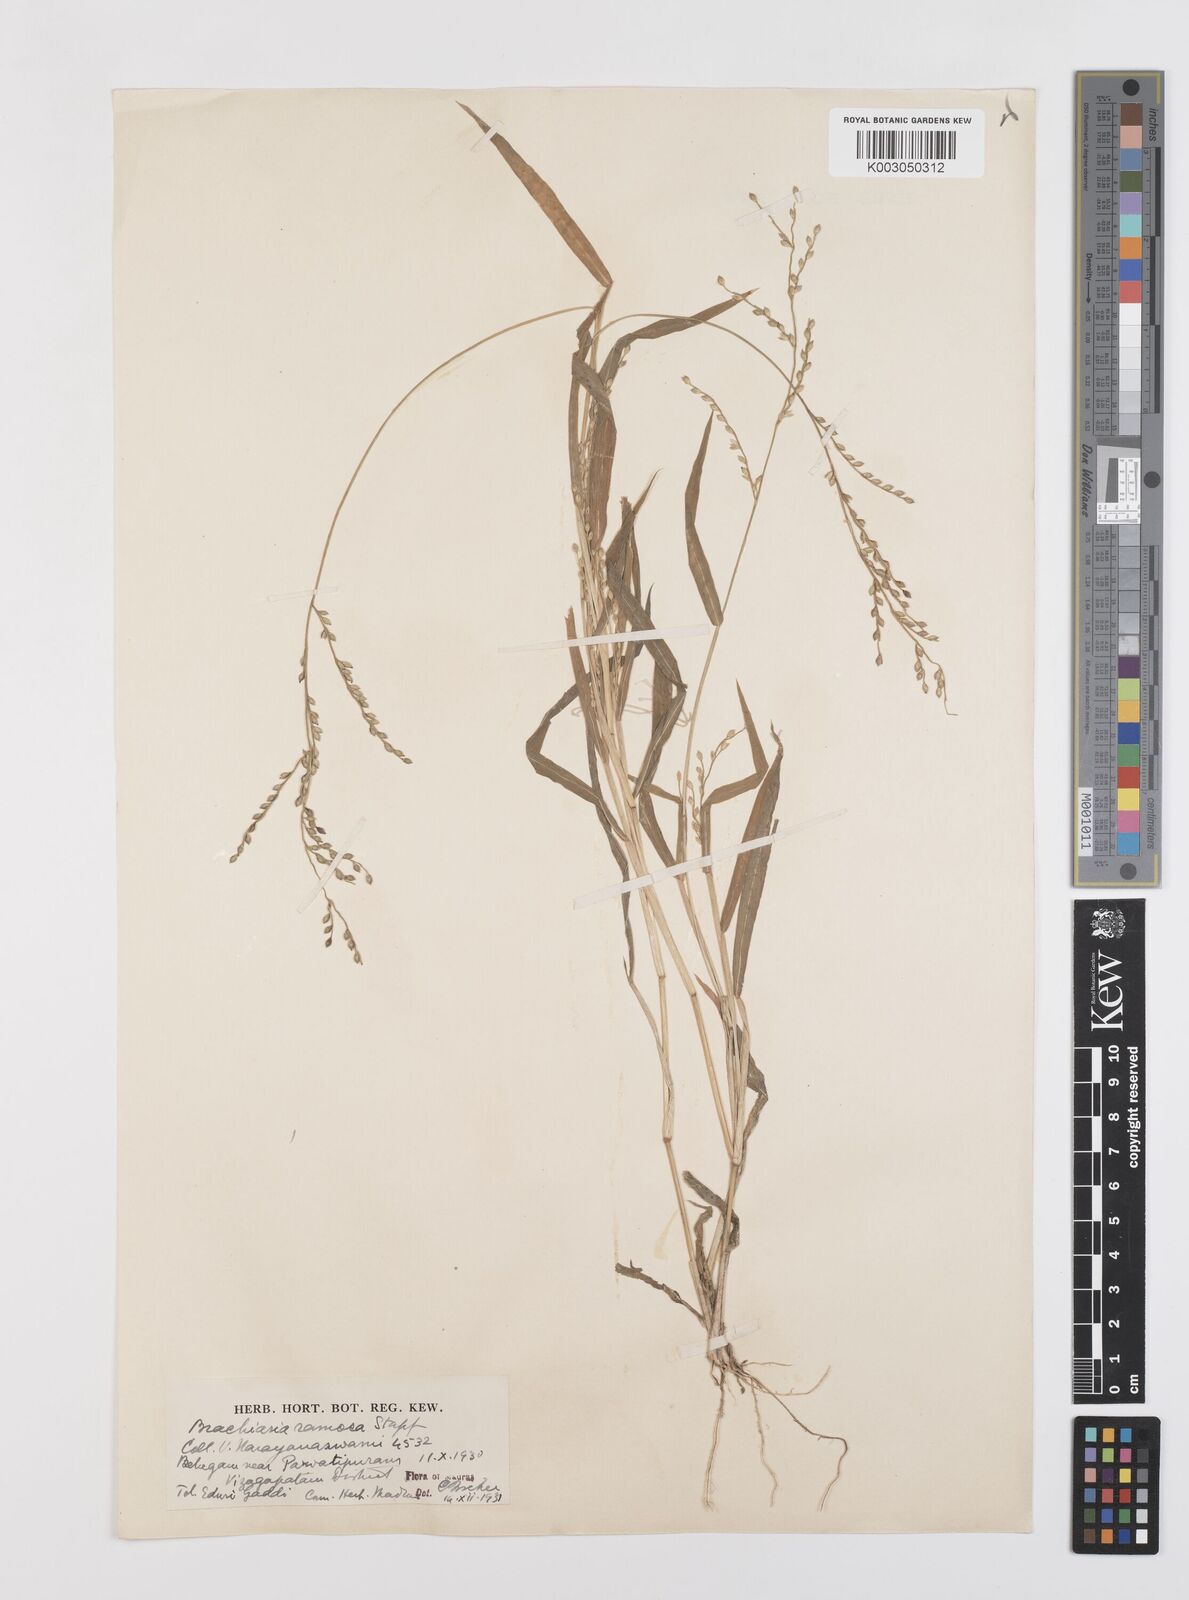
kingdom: Plantae
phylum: Tracheophyta
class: Liliopsida
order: Poales
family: Poaceae
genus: Urochloa
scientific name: Urochloa ramosa
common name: Browntop millet
